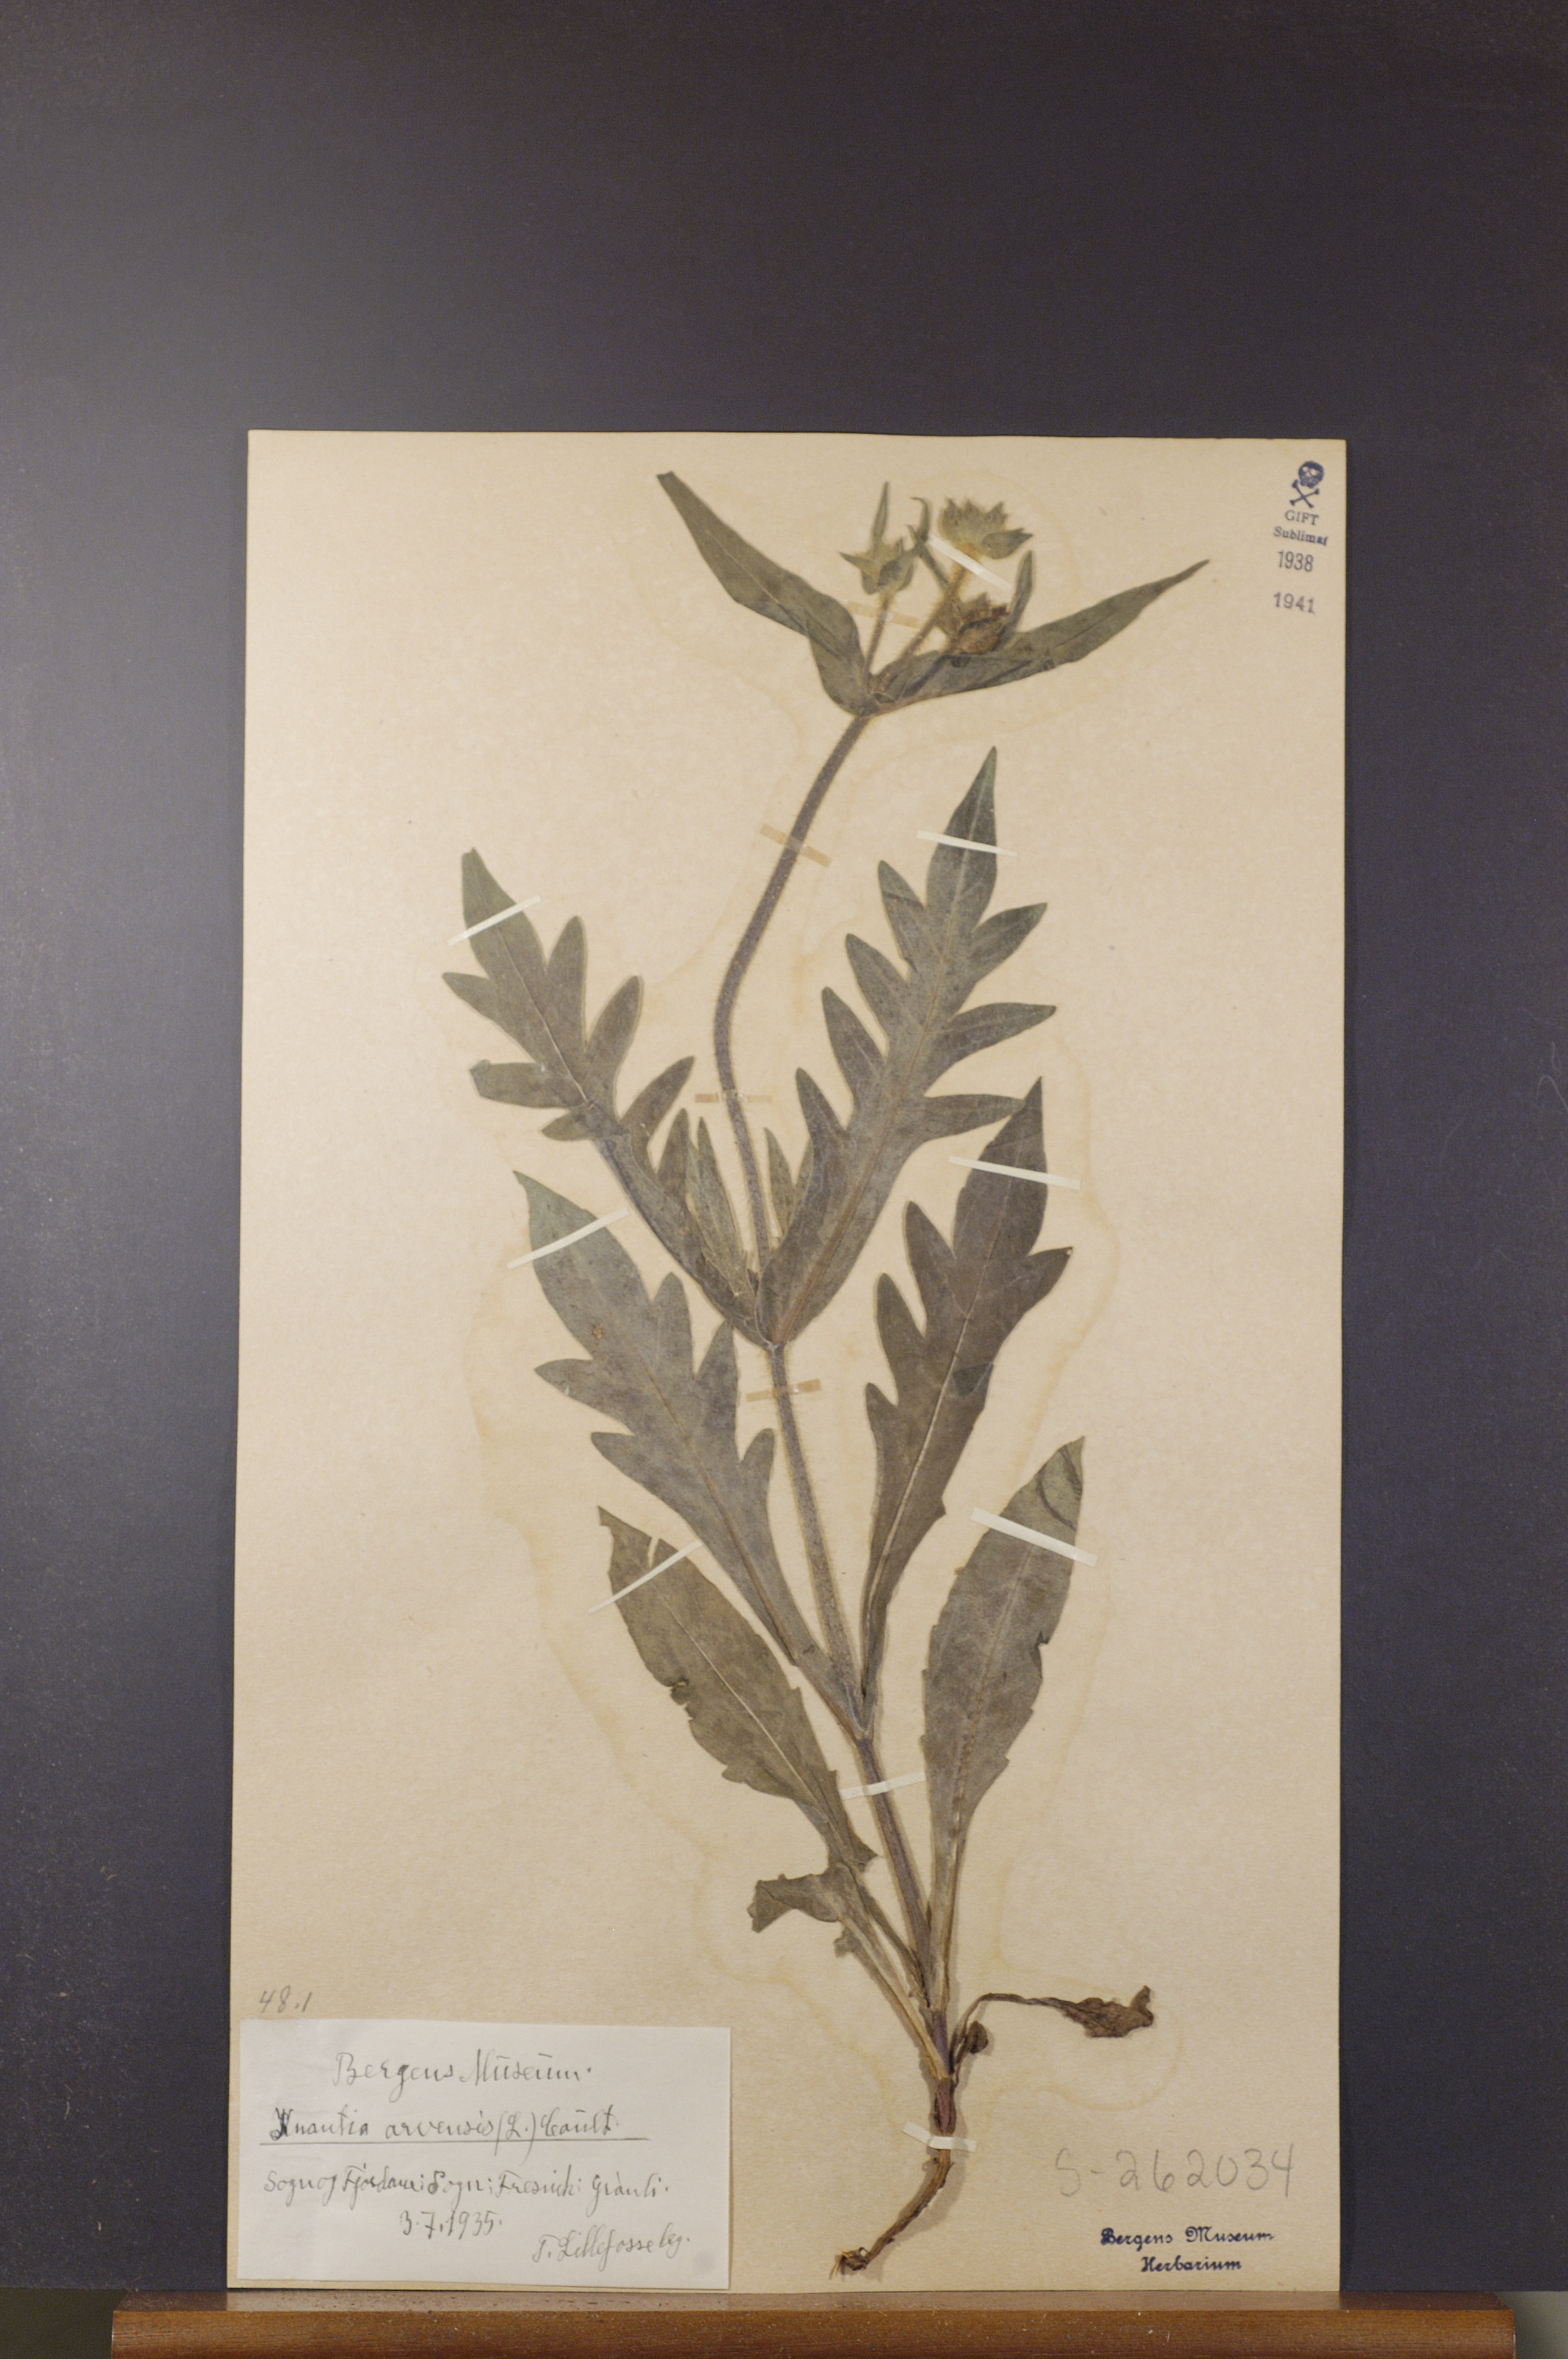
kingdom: Plantae
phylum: Tracheophyta
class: Magnoliopsida
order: Dipsacales
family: Caprifoliaceae
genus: Knautia
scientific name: Knautia arvensis
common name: Field scabiosa
